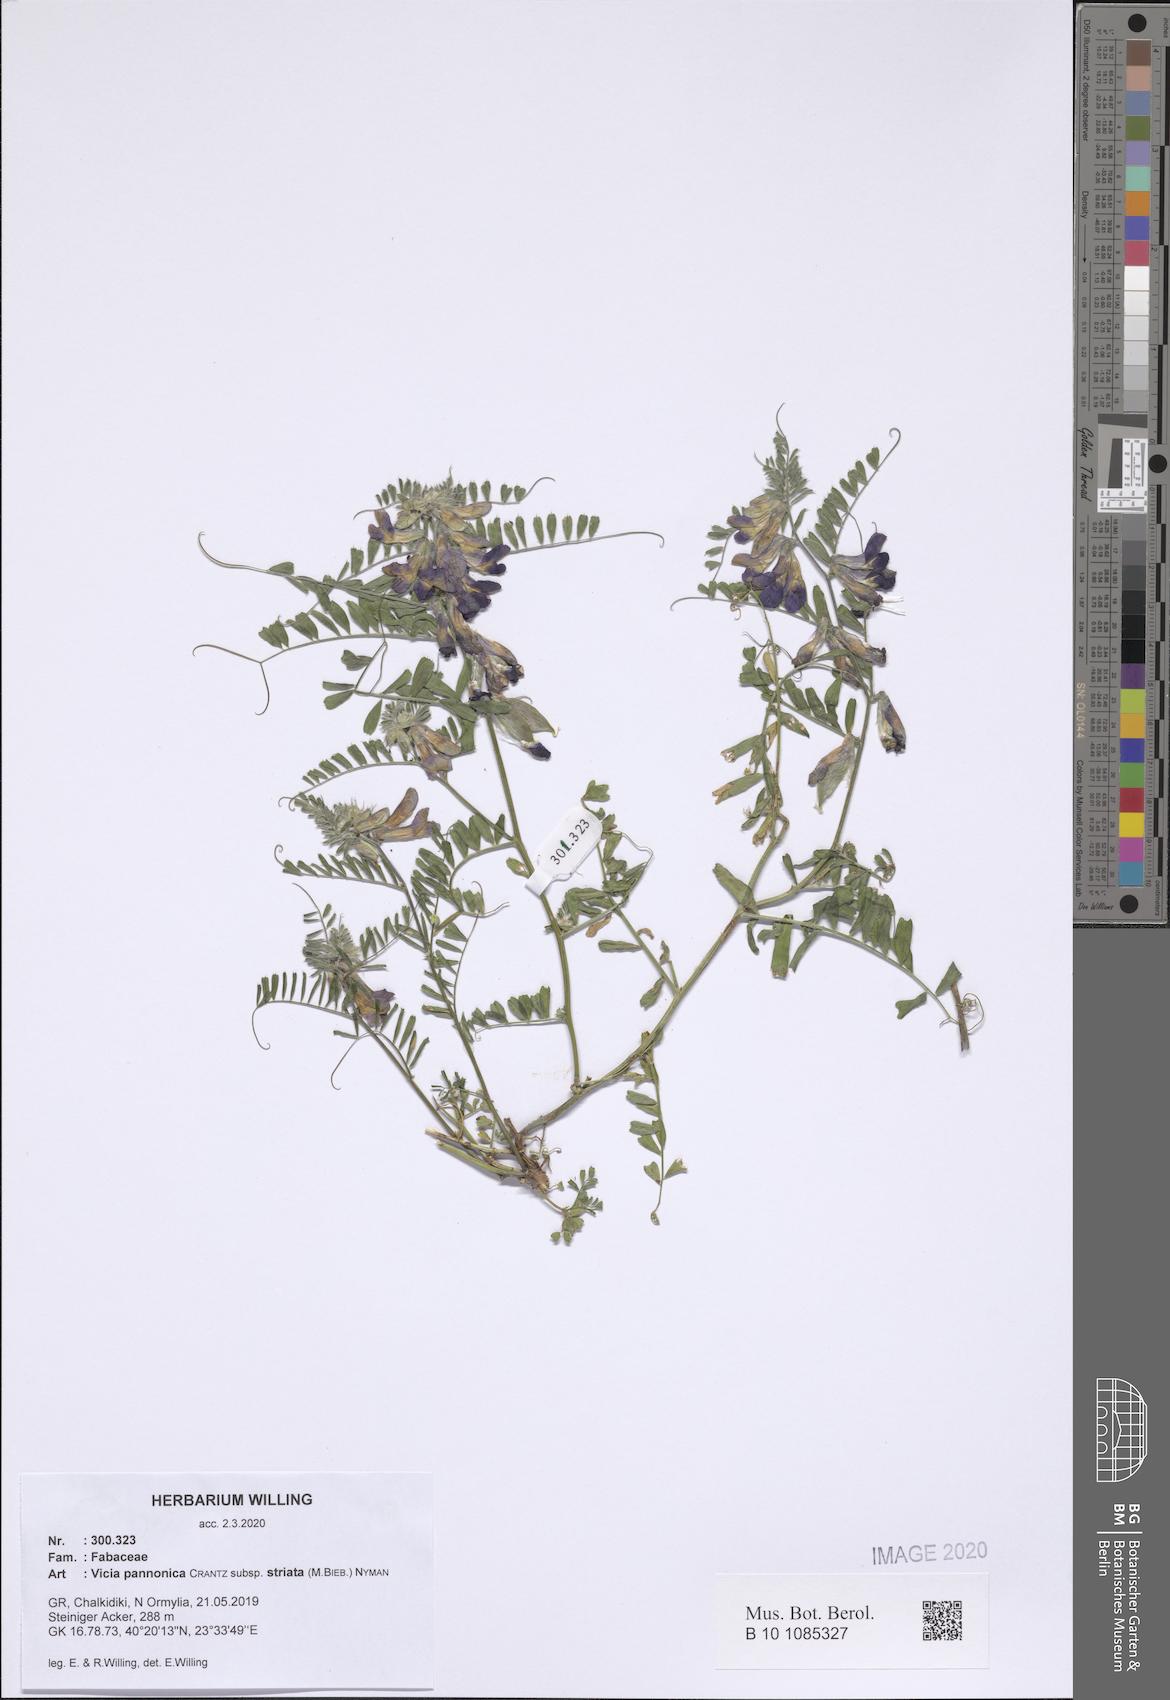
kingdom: Plantae
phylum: Tracheophyta
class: Magnoliopsida
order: Fabales
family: Fabaceae
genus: Vicia
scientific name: Vicia pannonica
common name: Hungarian vetch
